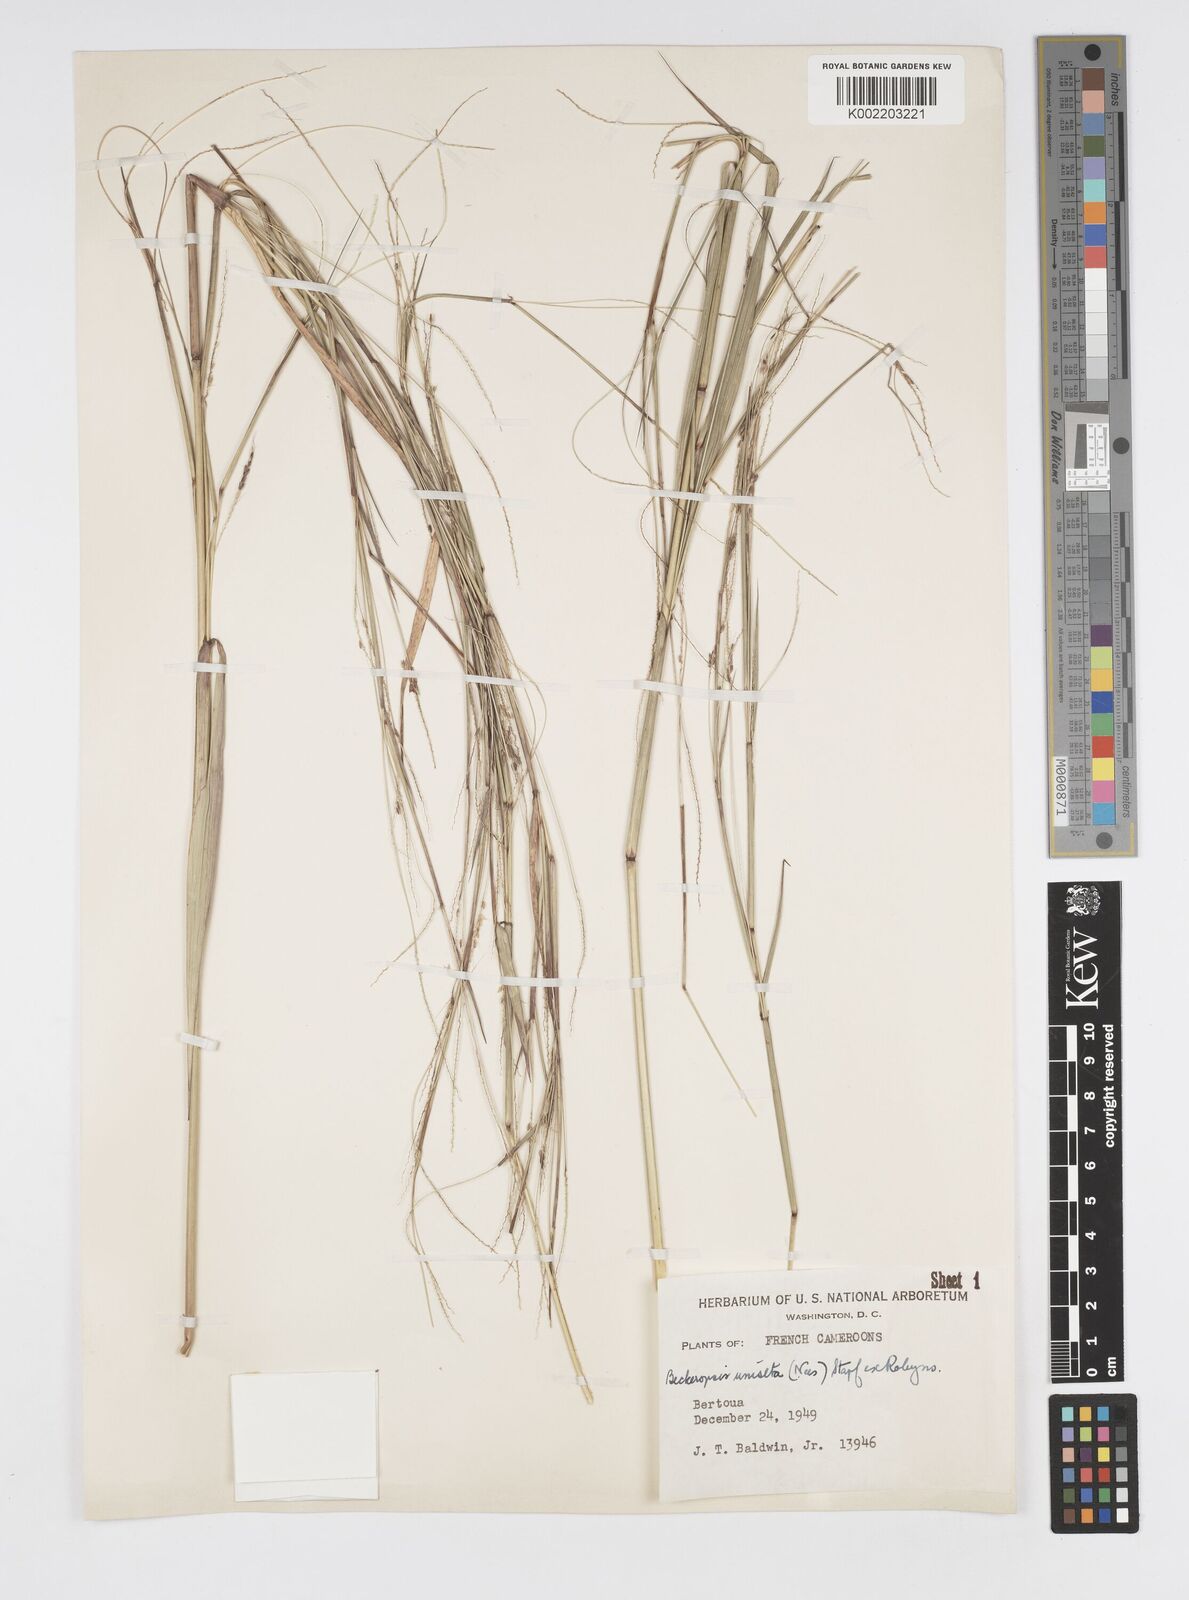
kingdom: Plantae
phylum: Tracheophyta
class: Liliopsida
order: Poales
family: Poaceae
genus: Cenchrus
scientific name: Cenchrus unisetus
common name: Natal grass
